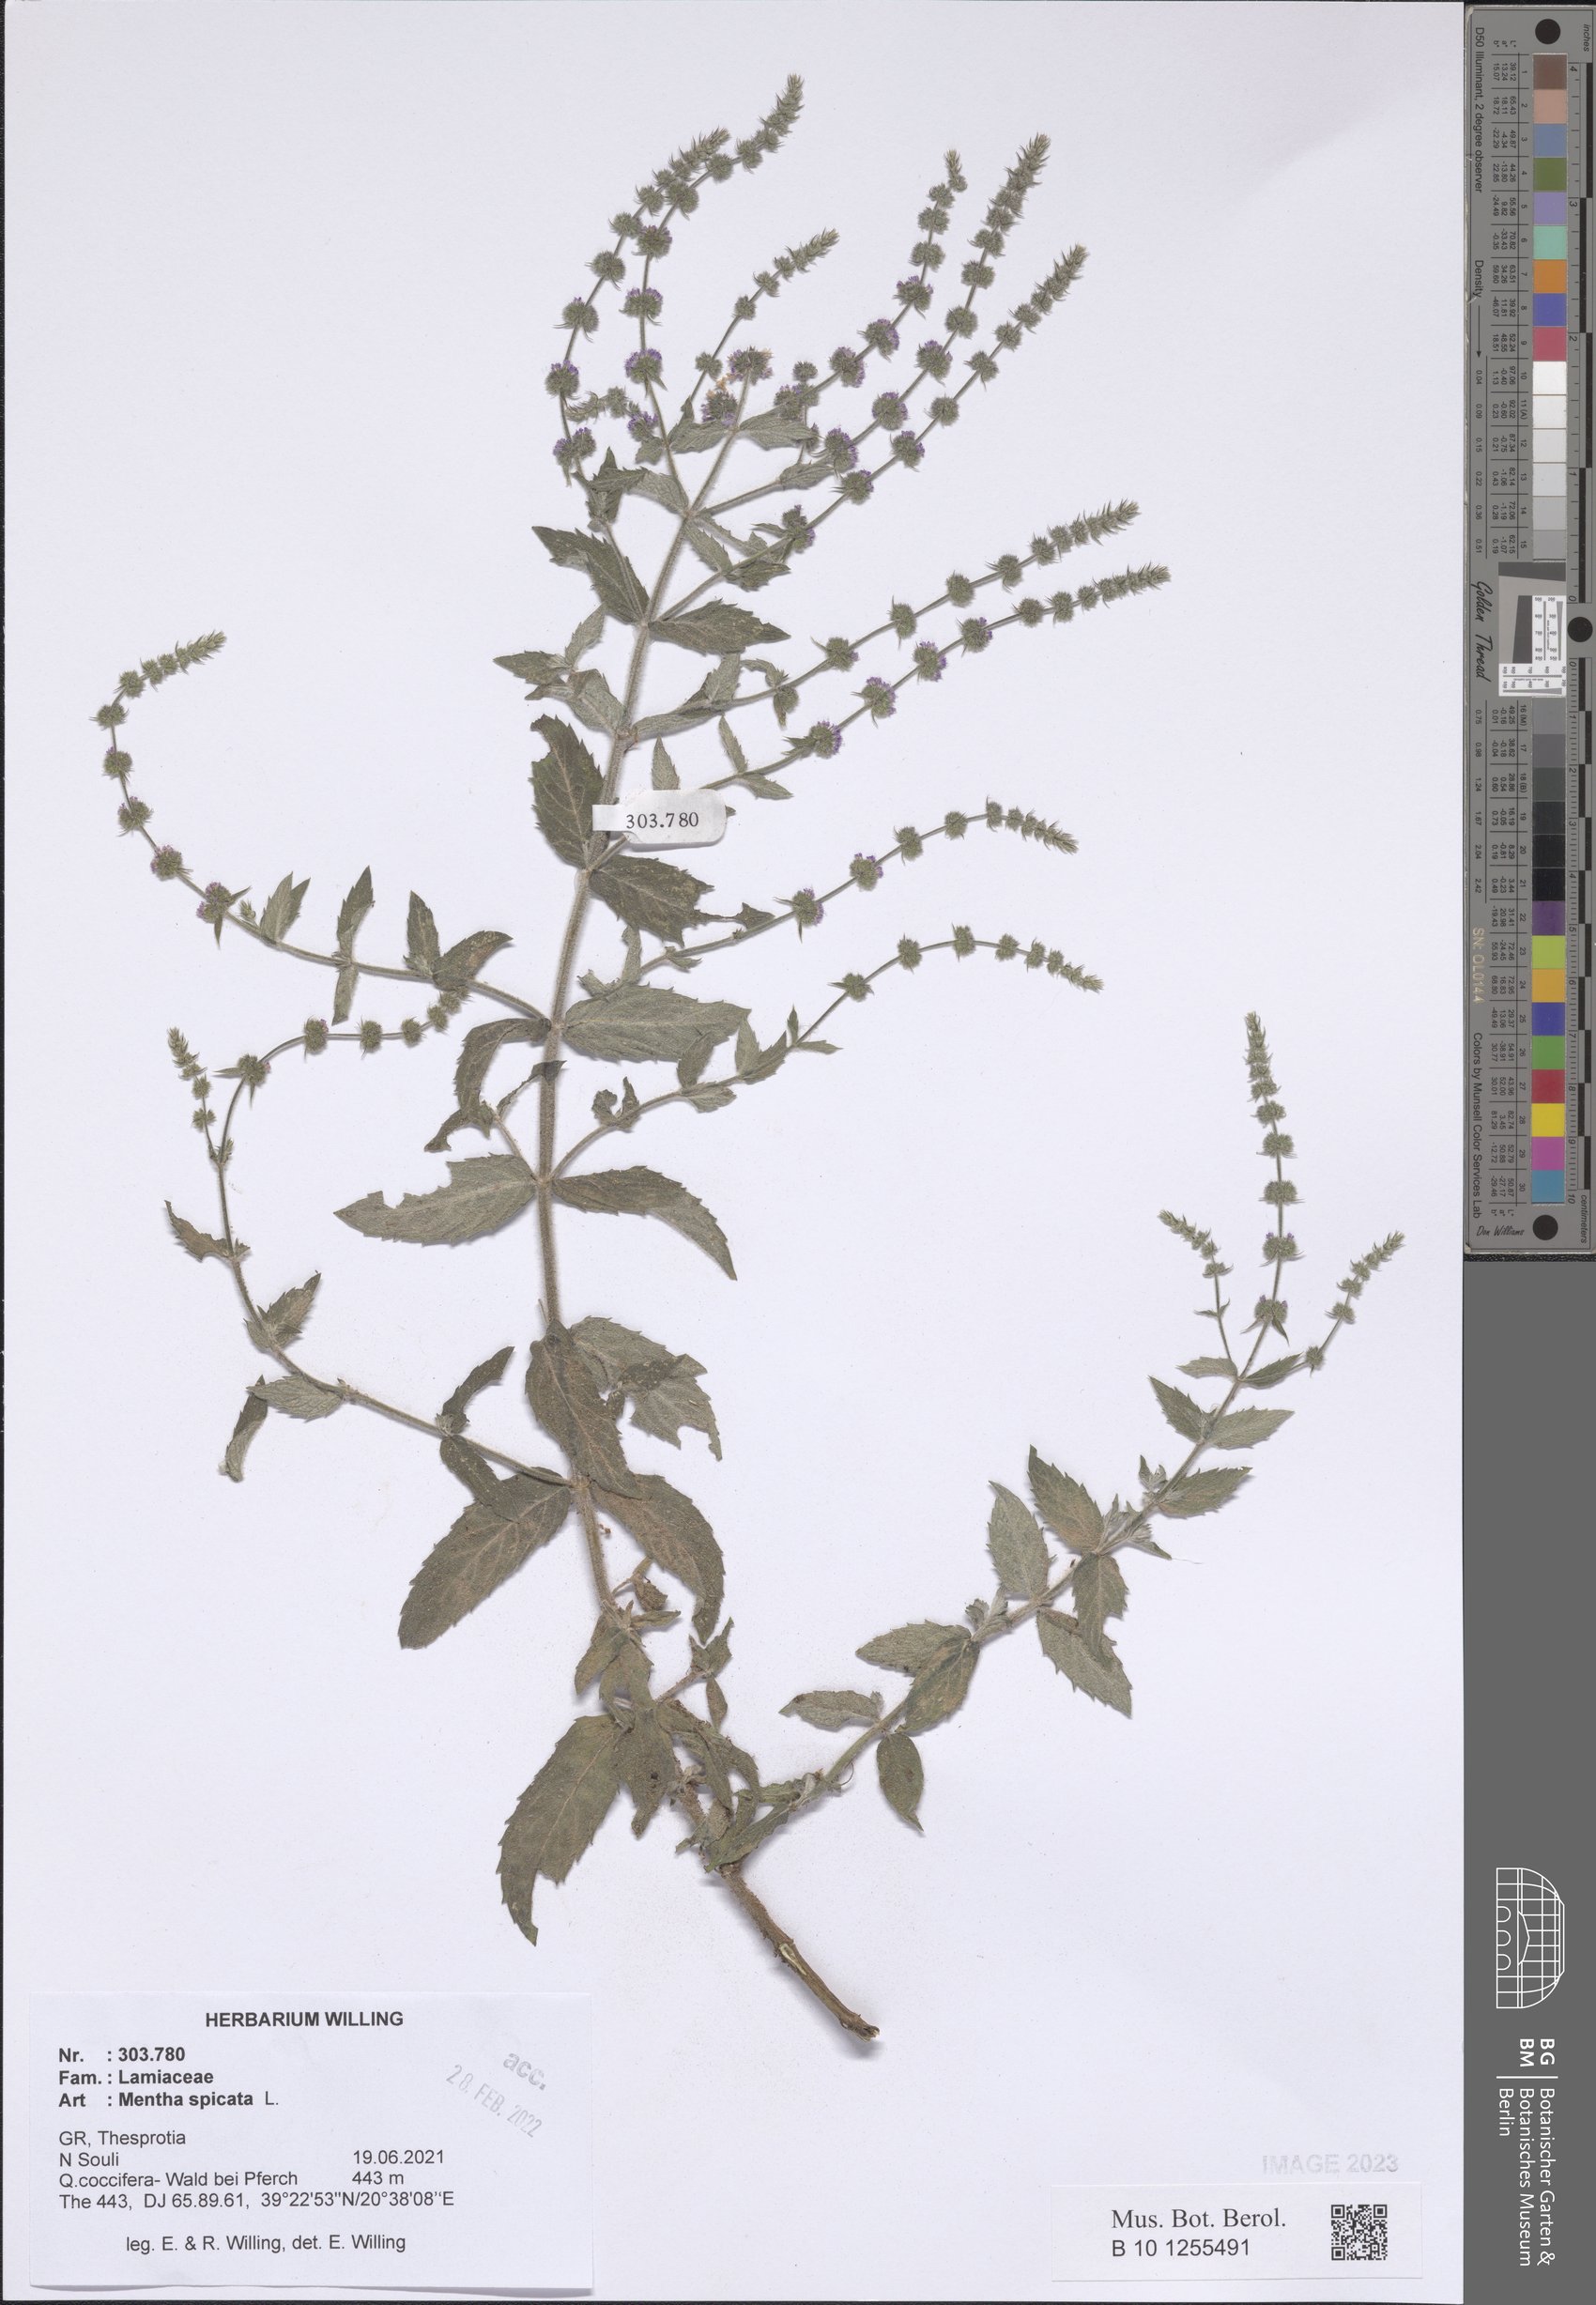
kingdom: Plantae
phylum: Tracheophyta
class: Magnoliopsida
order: Lamiales
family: Lamiaceae
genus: Mentha
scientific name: Mentha spicata
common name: Spearmint
